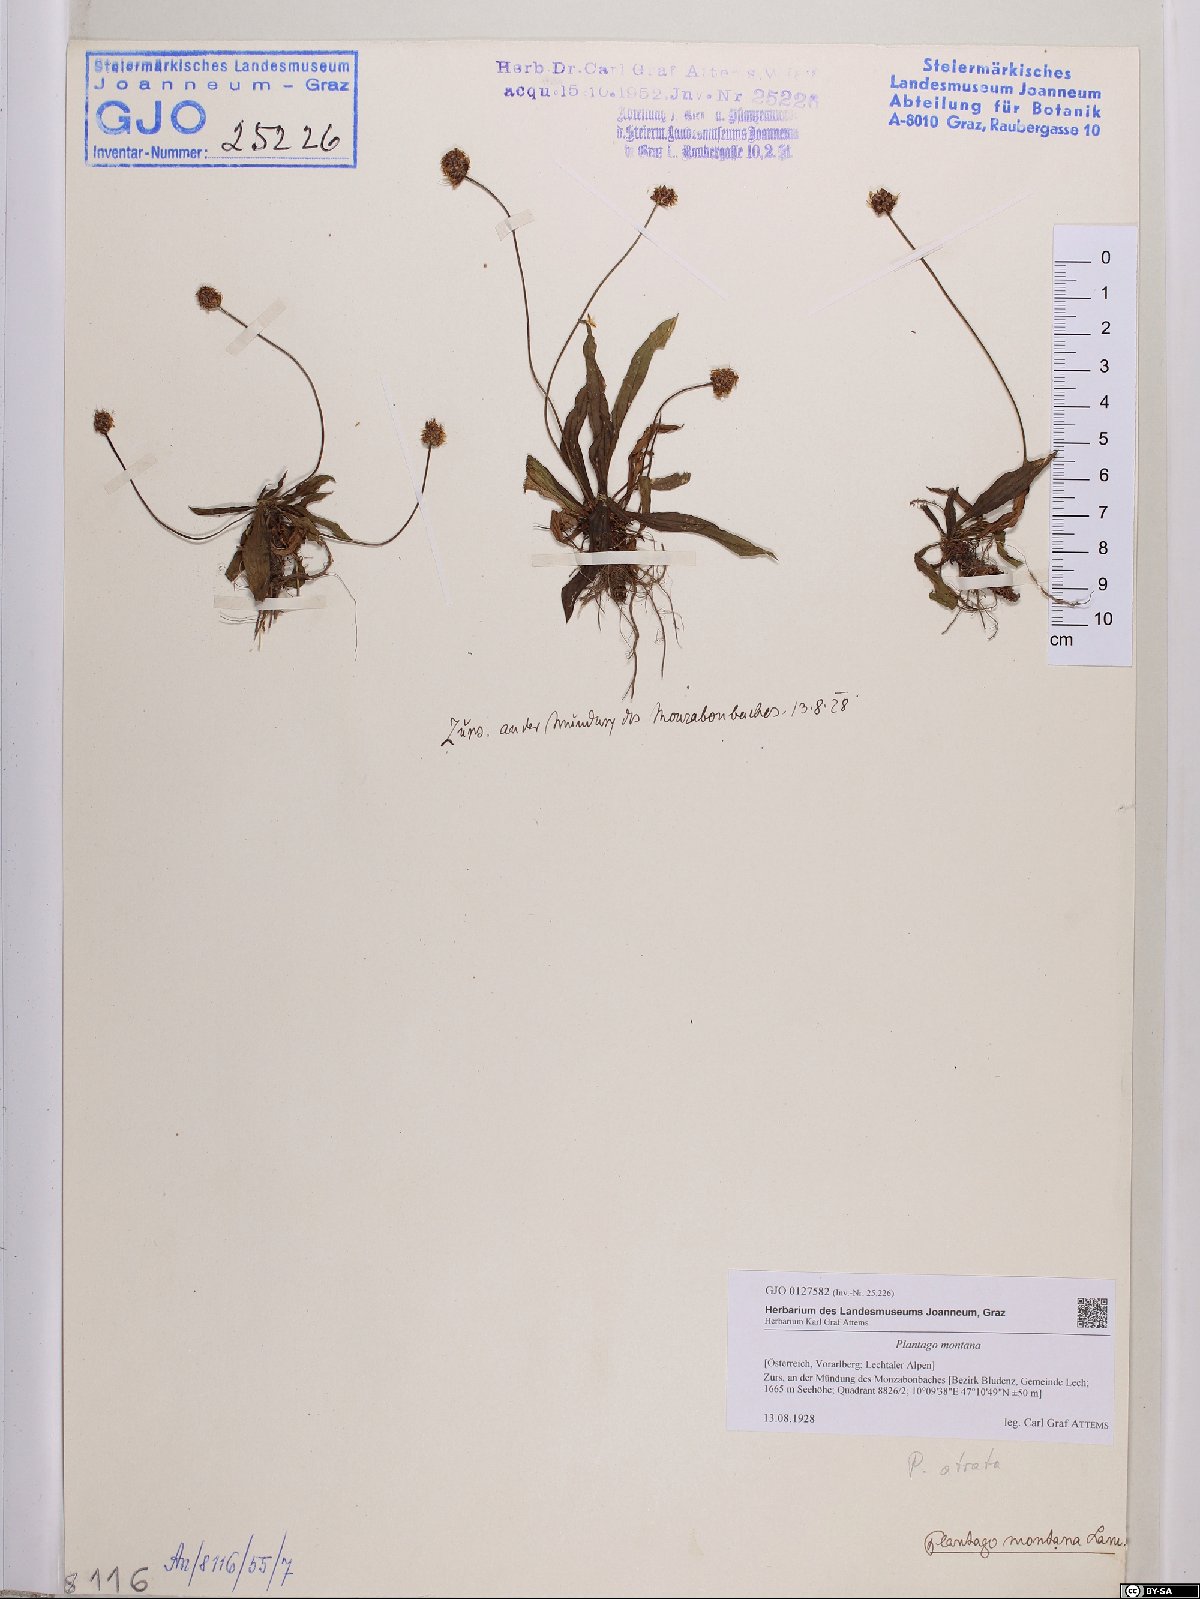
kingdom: Plantae
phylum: Tracheophyta
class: Magnoliopsida
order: Lamiales
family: Plantaginaceae
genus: Plantago
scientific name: Plantago atrata
